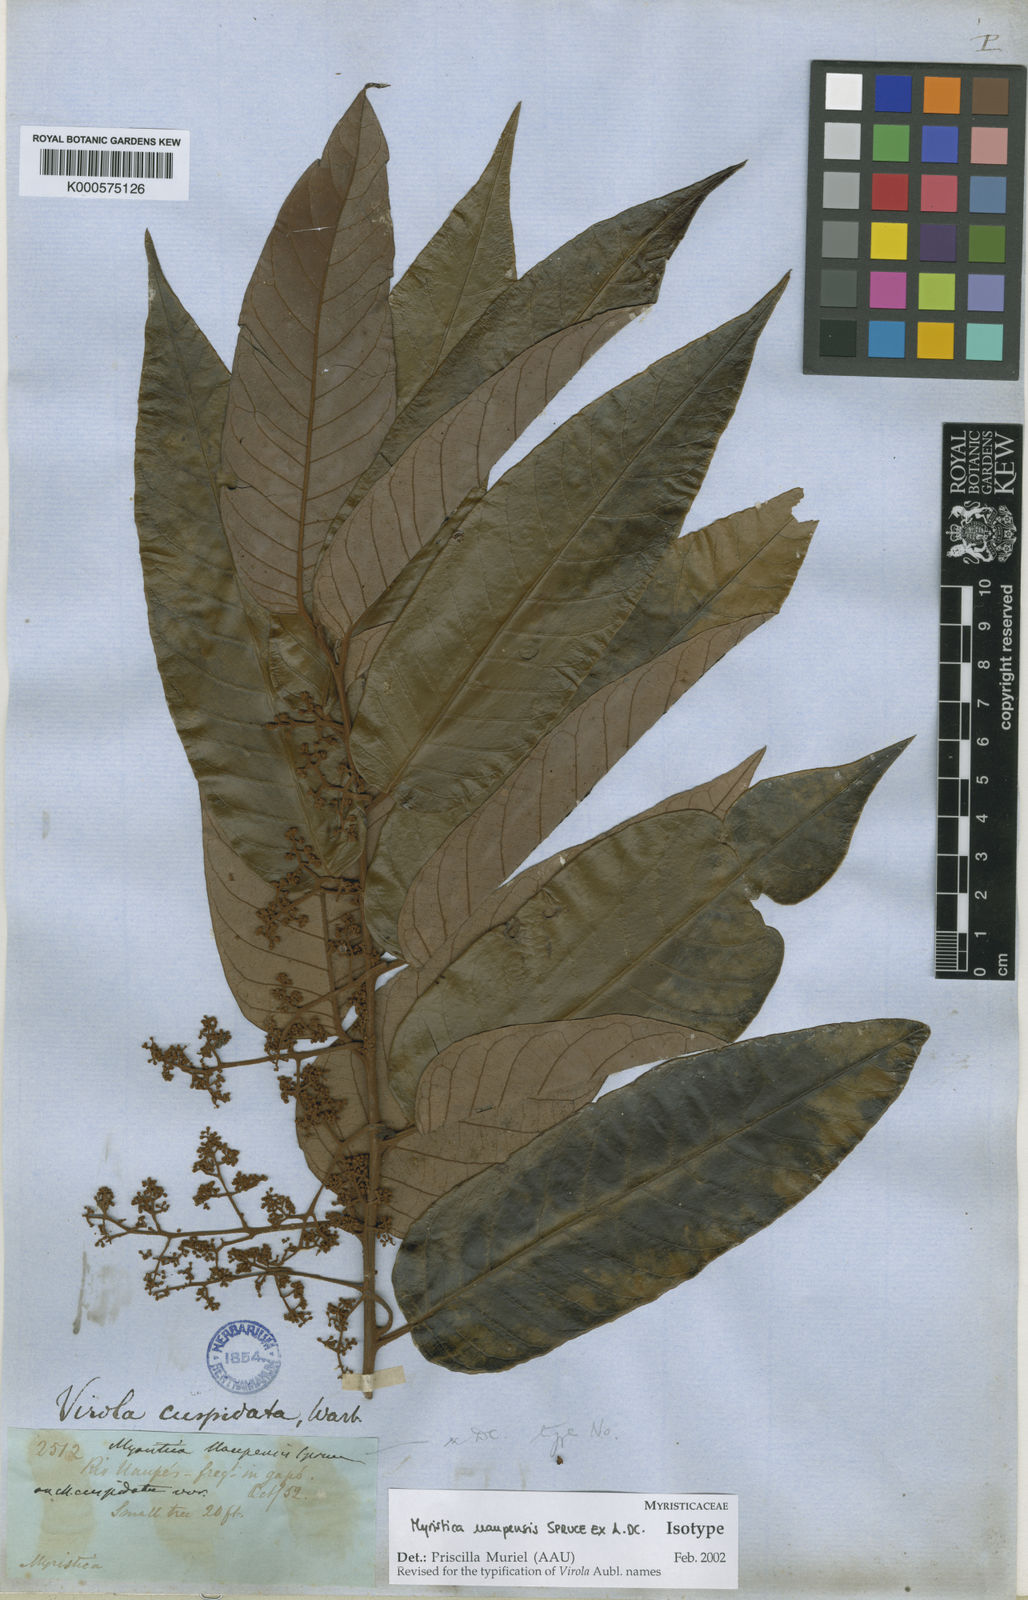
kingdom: Plantae
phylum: Tracheophyta
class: Magnoliopsida
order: Magnoliales
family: Myristicaceae
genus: Virola
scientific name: Virola elongata
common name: Sacred virola
